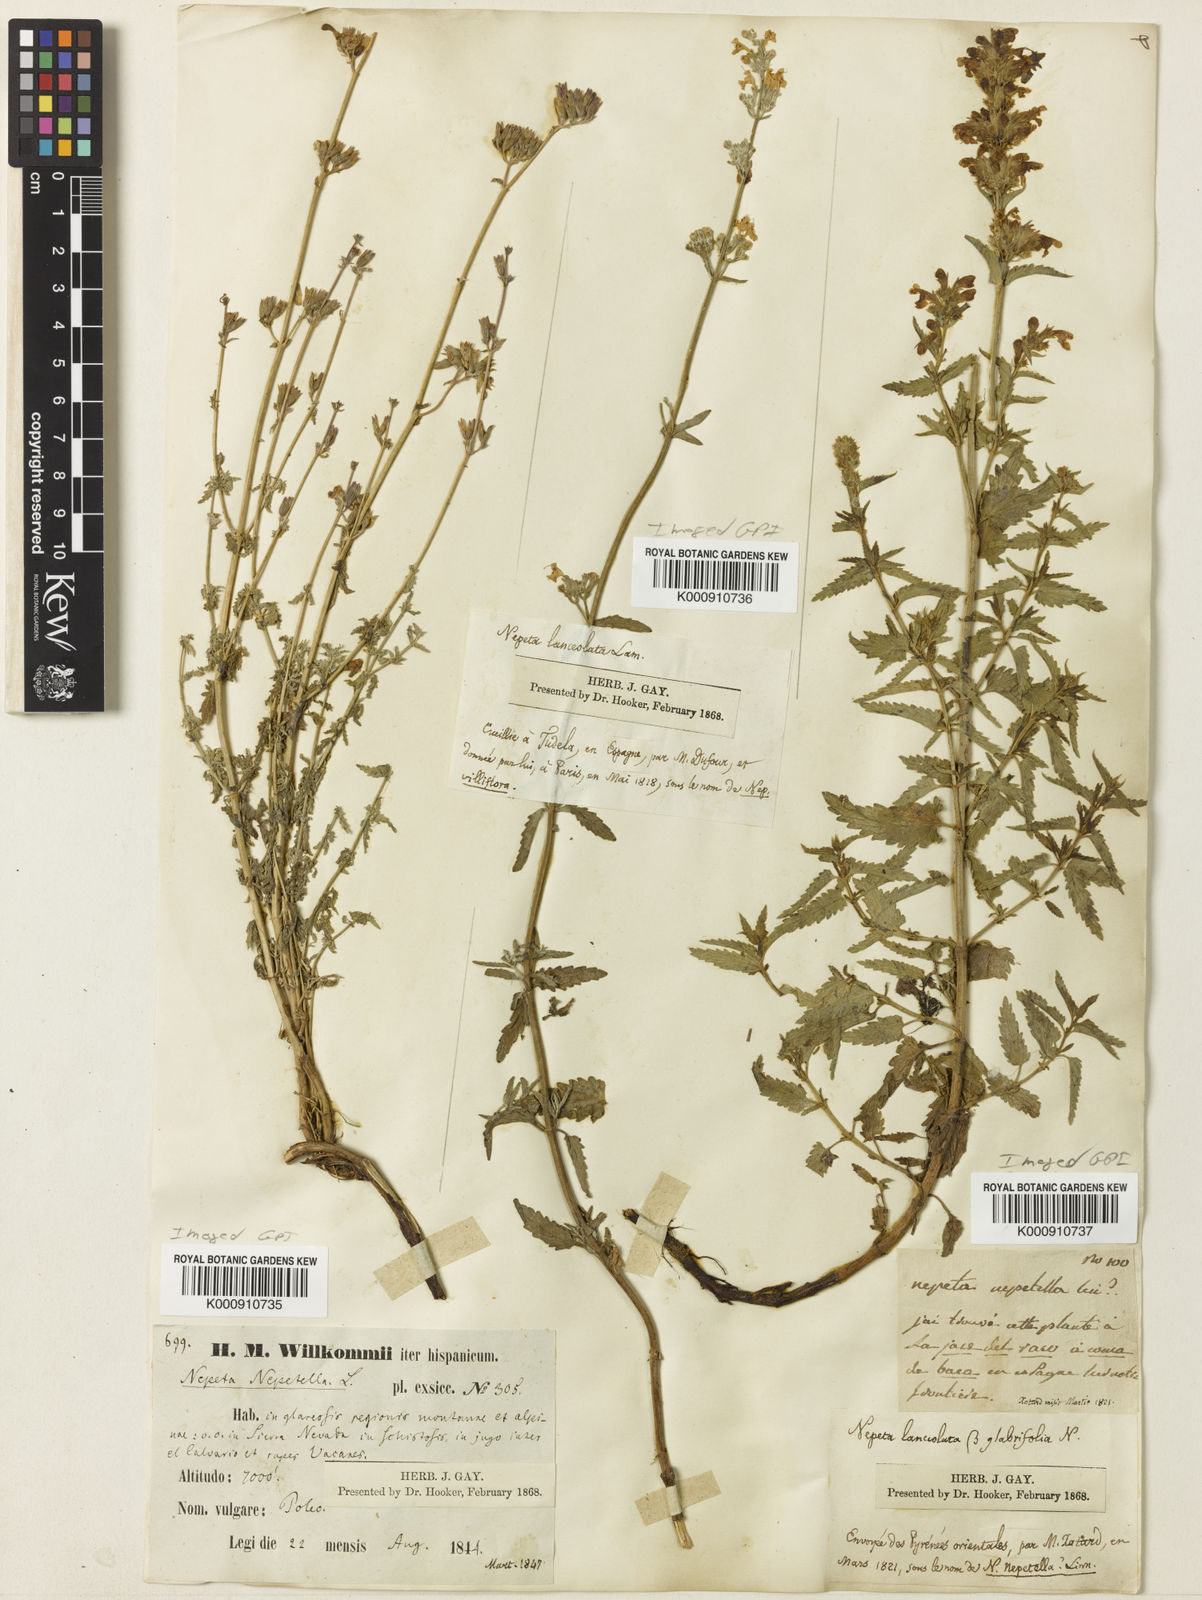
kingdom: Plantae
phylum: Tracheophyta
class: Magnoliopsida
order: Lamiales
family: Lamiaceae
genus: Nepeta
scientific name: Nepeta nepetella
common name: Lesser catmint
